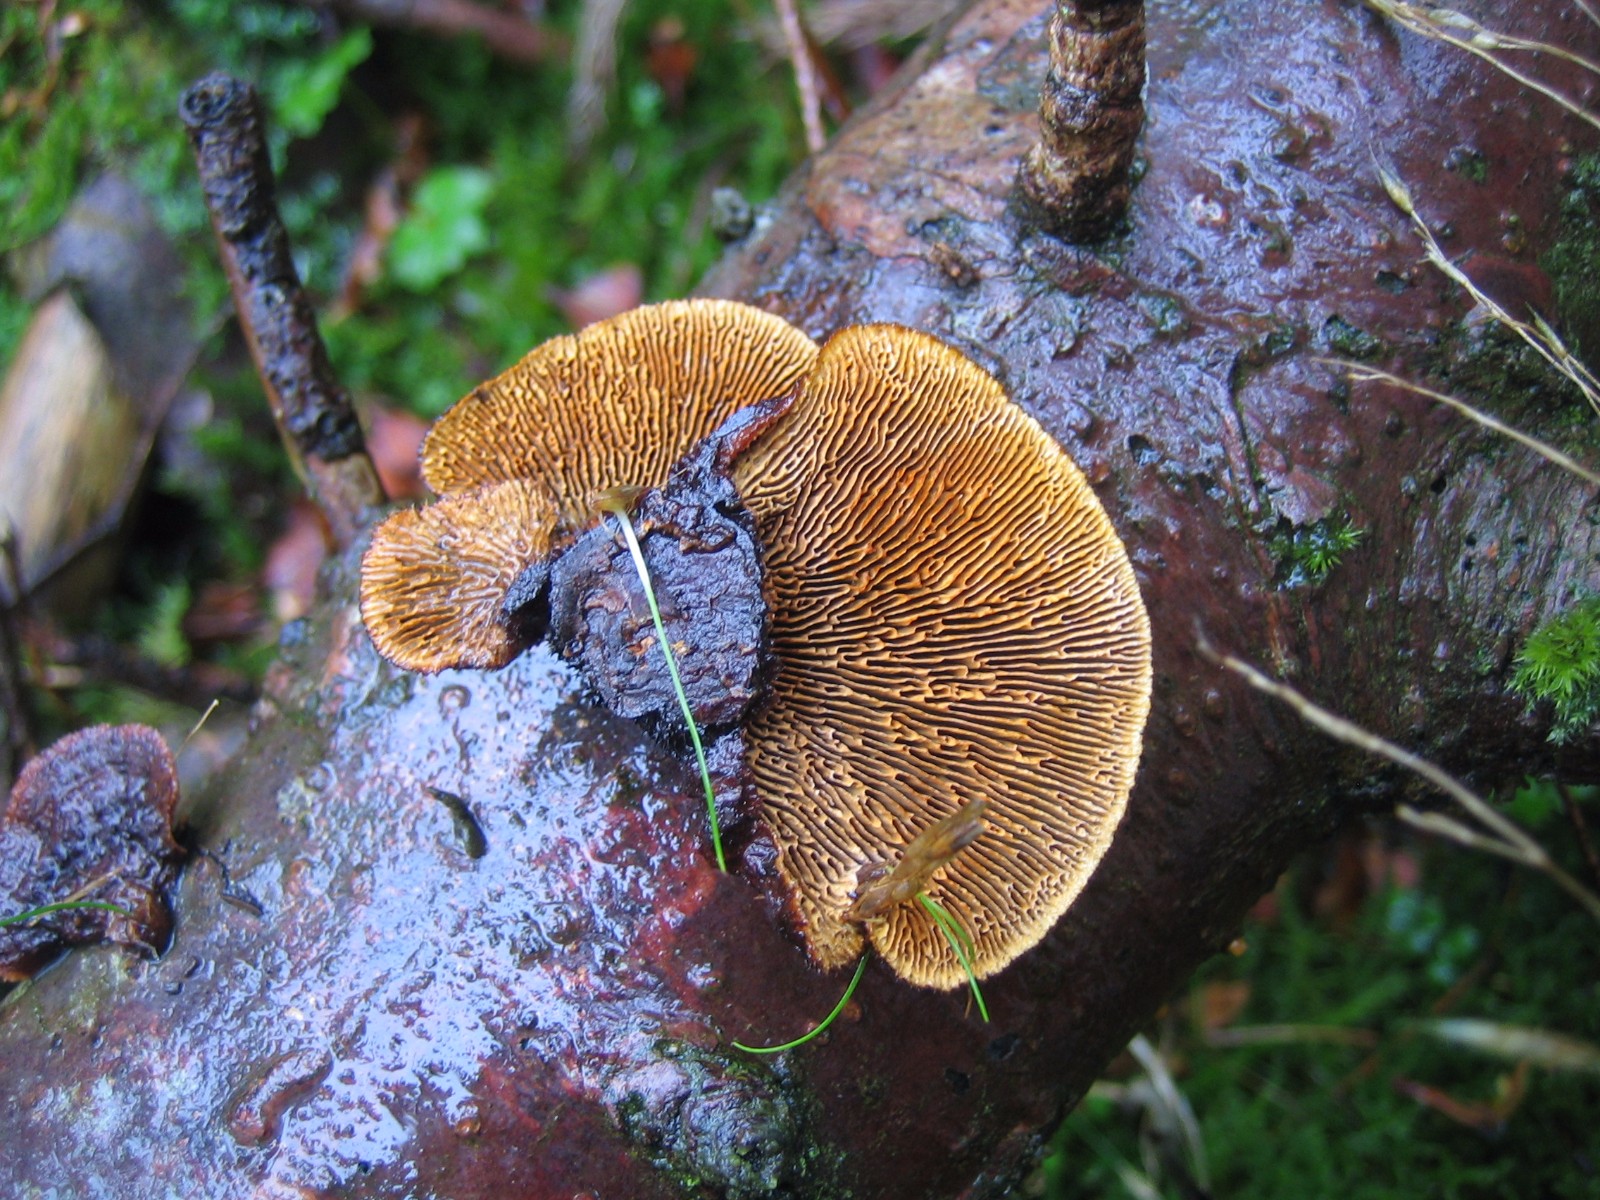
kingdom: Fungi
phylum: Basidiomycota
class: Agaricomycetes
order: Gloeophyllales
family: Gloeophyllaceae
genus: Gloeophyllum
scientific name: Gloeophyllum sepiarium
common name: fyrre-korkhat
